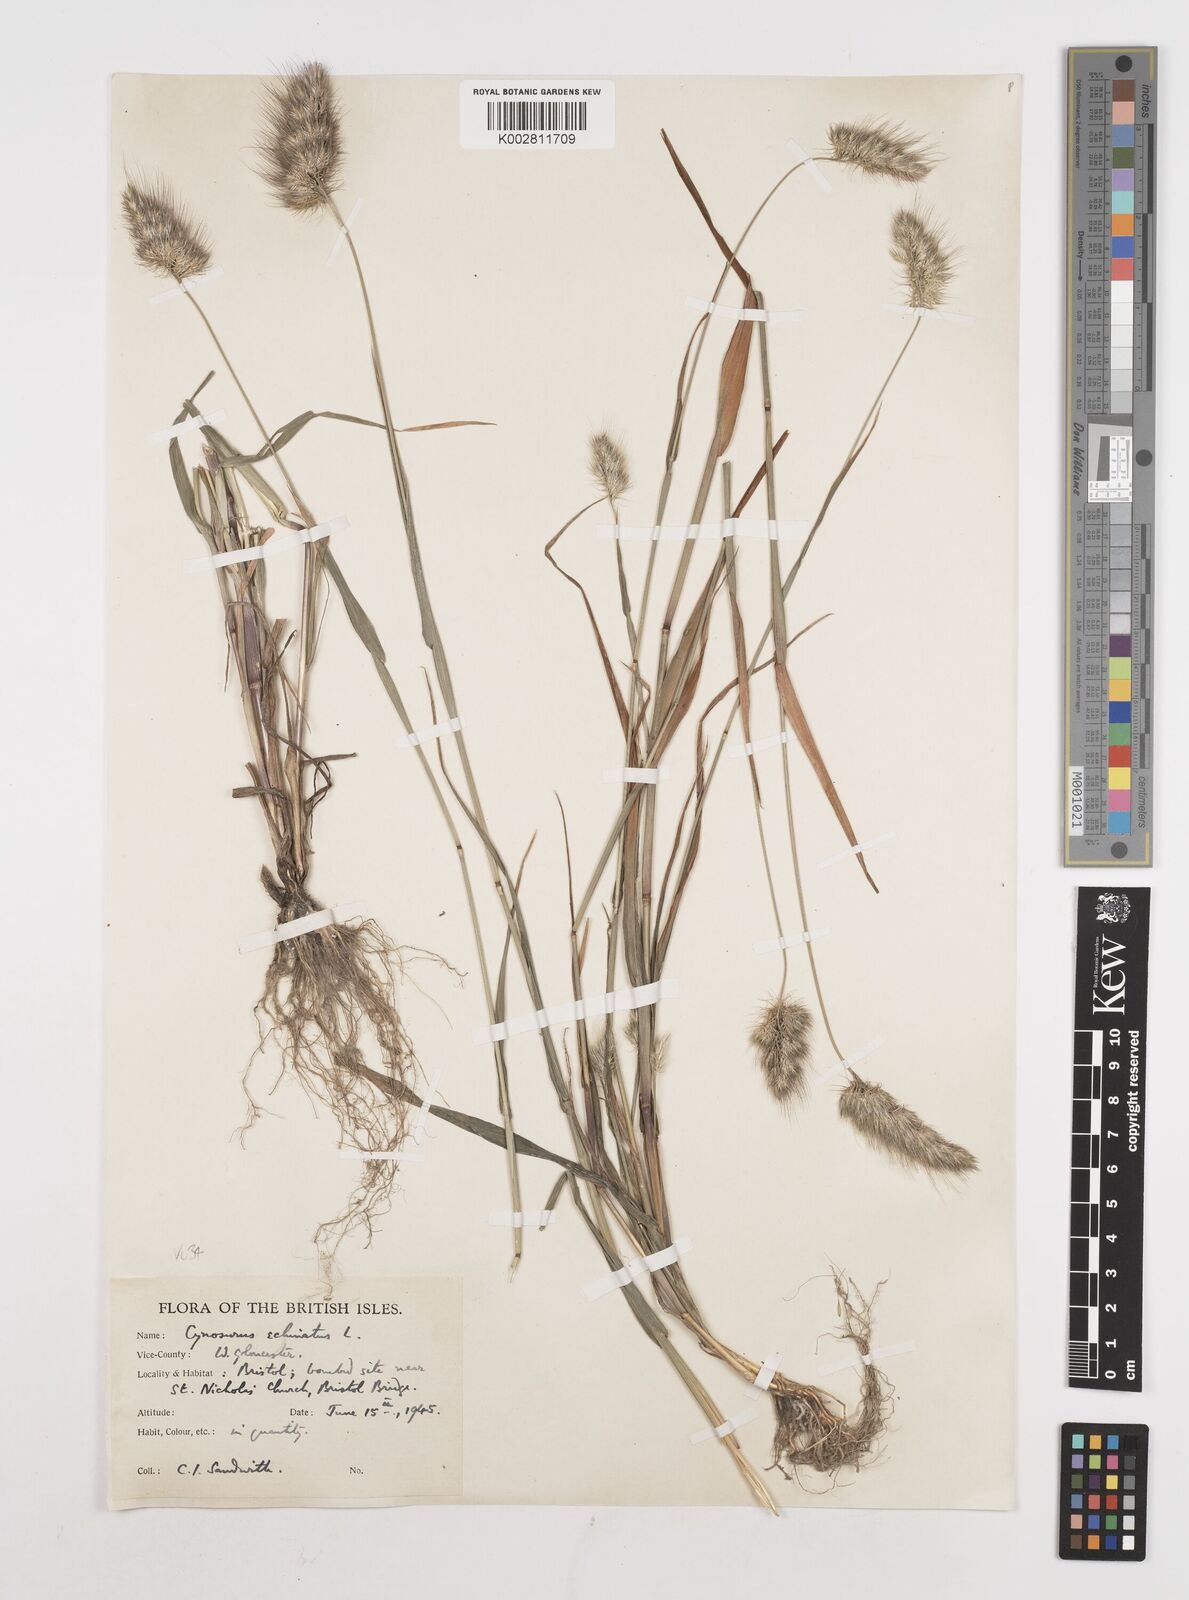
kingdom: Plantae
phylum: Tracheophyta
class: Liliopsida
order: Poales
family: Poaceae
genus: Cynosurus
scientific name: Cynosurus echinatus
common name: Rough dog's-tail
